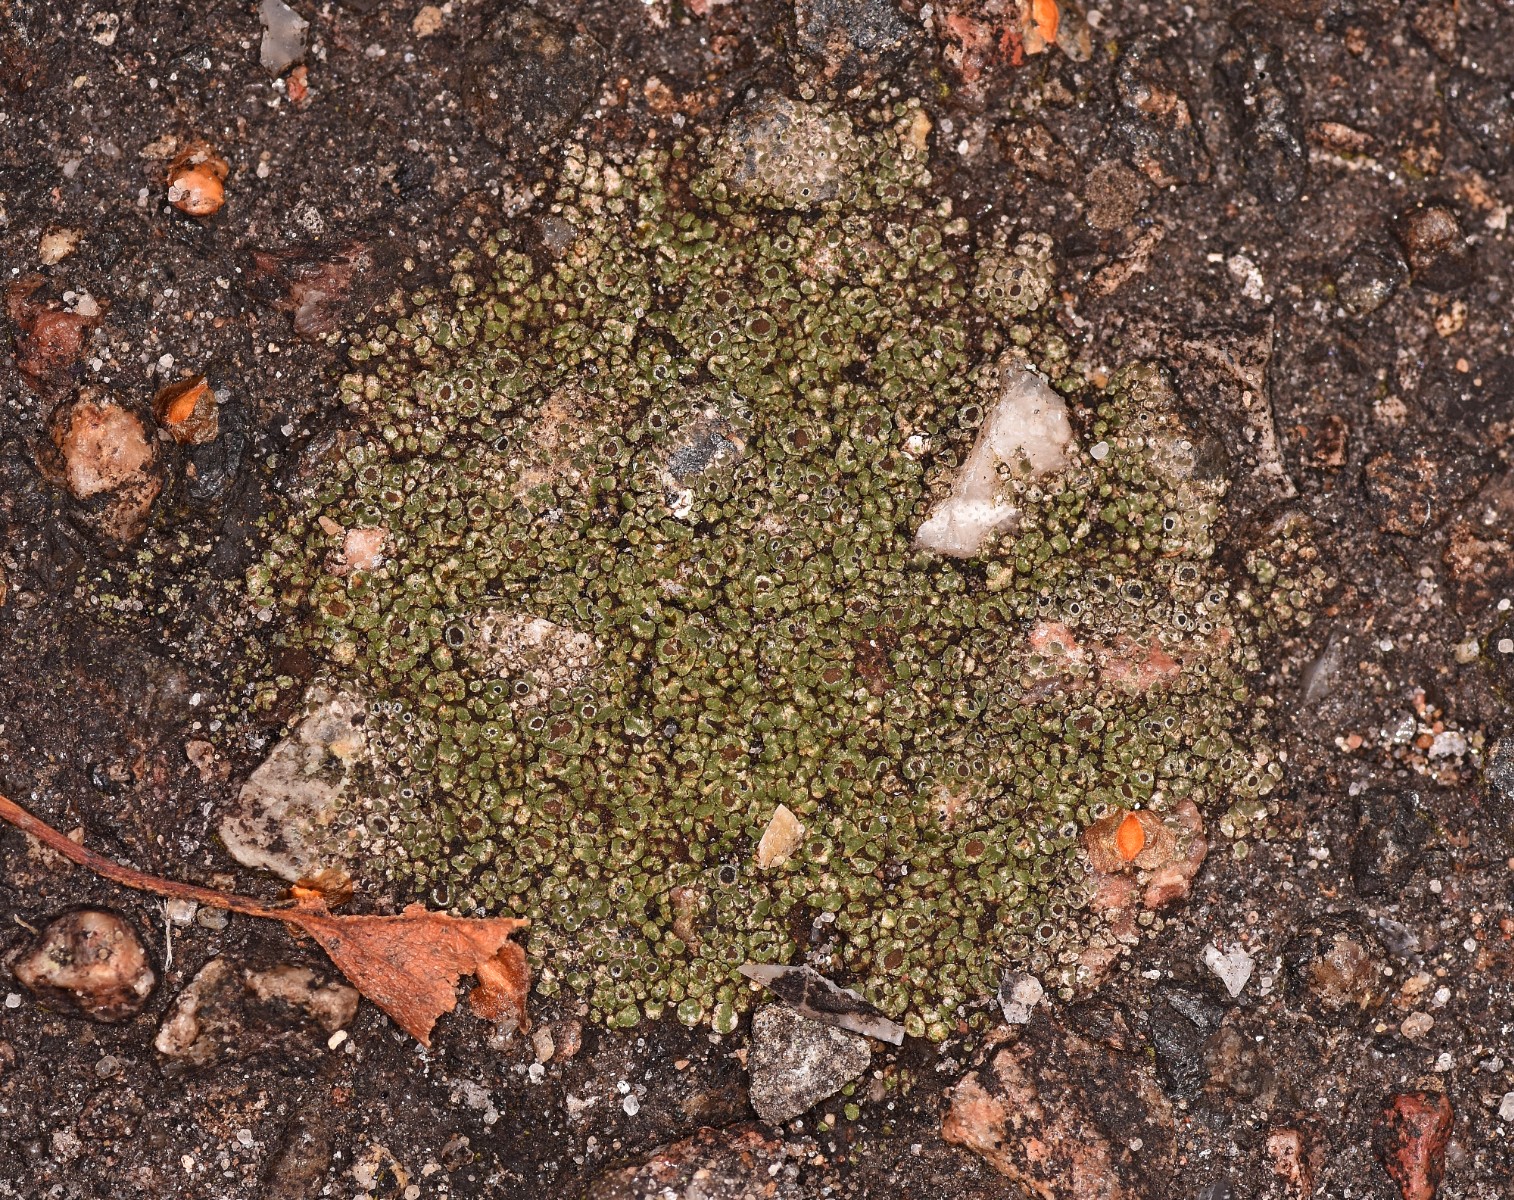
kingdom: Fungi
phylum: Ascomycota
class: Lecanoromycetes
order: Pertusariales
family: Megasporaceae
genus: Circinaria
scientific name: Circinaria contorta
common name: indviklet hulskivelav
